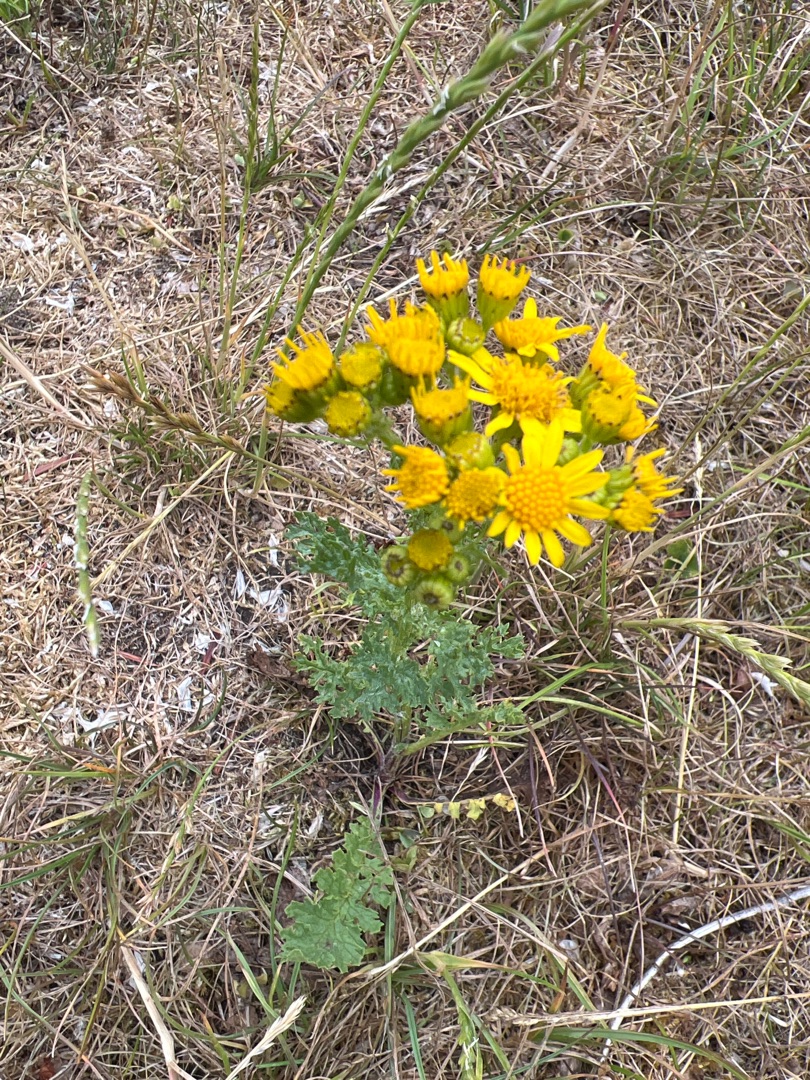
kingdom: Plantae
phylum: Tracheophyta
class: Magnoliopsida
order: Asterales
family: Asteraceae
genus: Jacobaea
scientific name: Jacobaea vulgaris
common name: Eng-brandbæger
